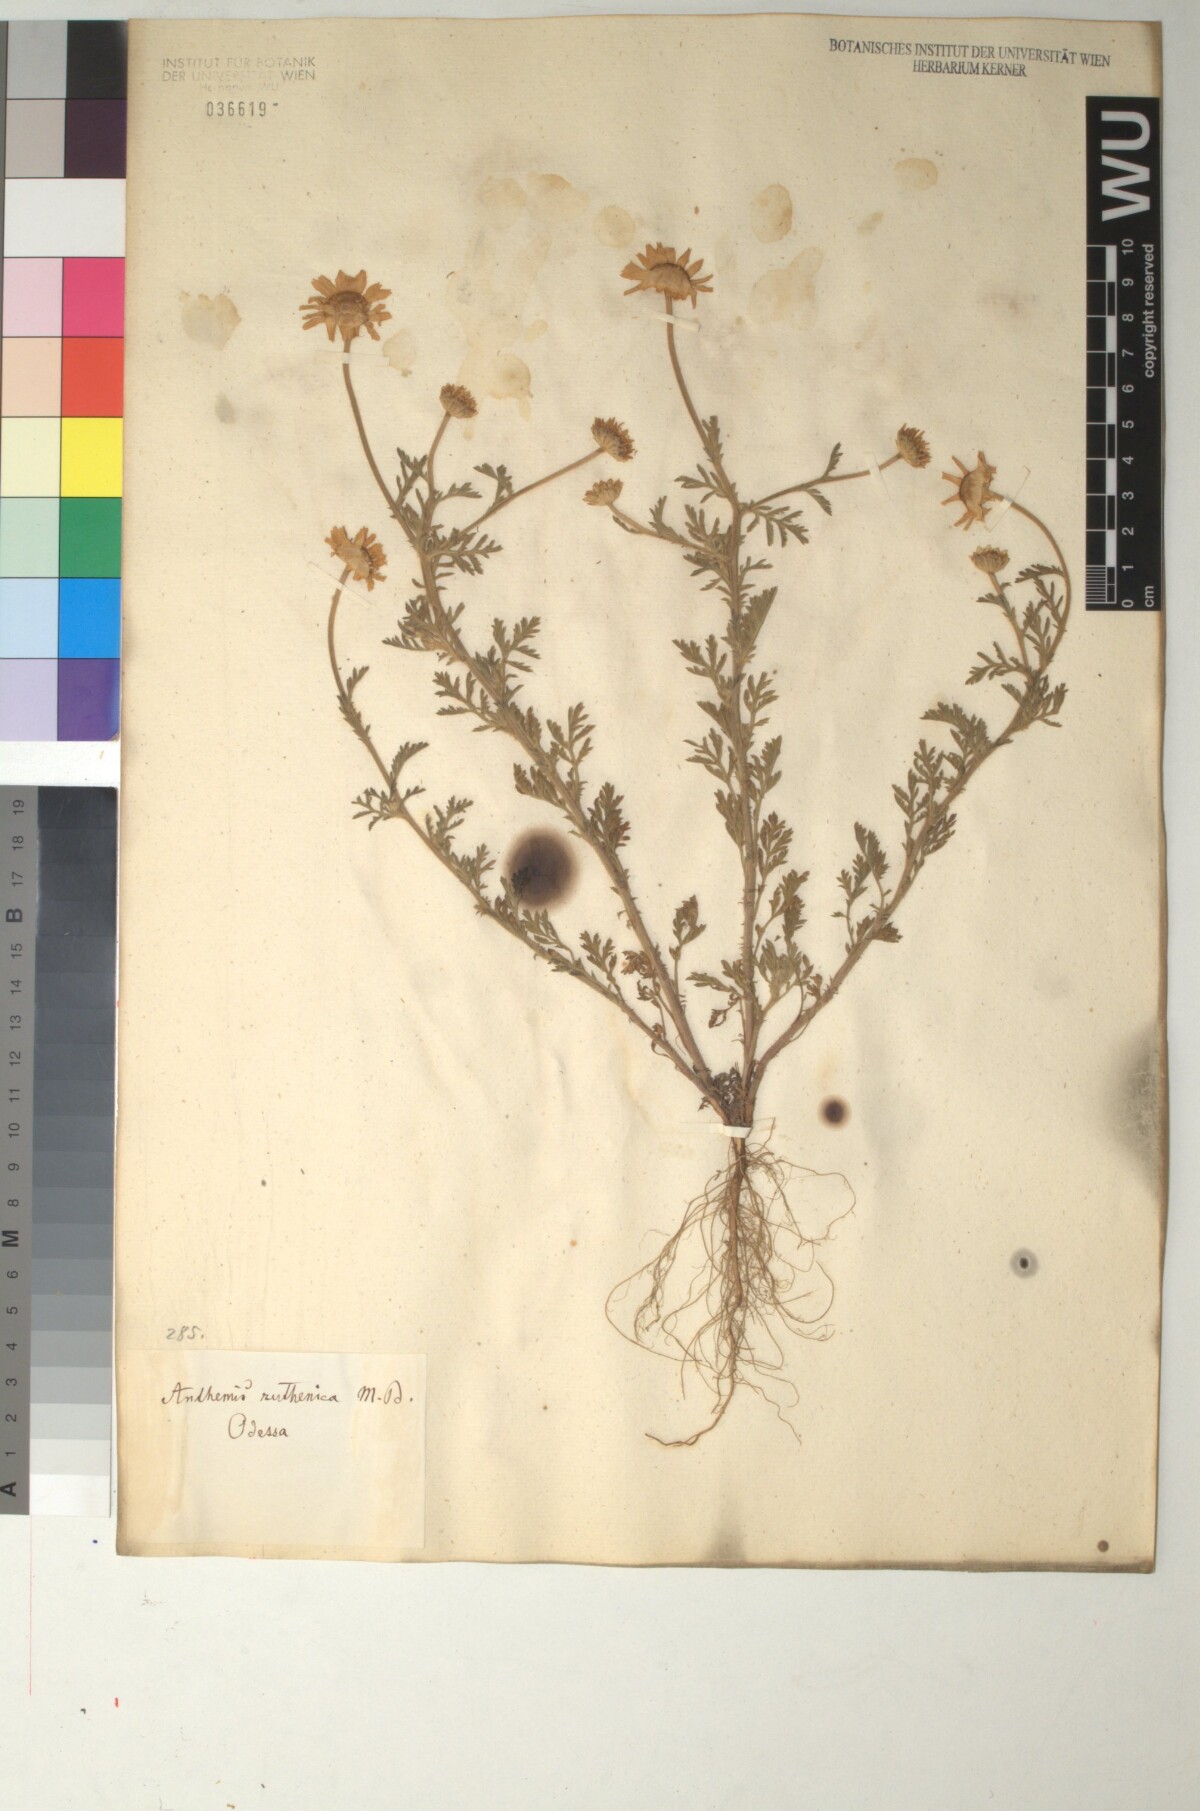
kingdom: Plantae
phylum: Tracheophyta
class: Magnoliopsida
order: Asterales
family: Asteraceae
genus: Anthemis
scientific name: Anthemis ruthenica
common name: Eastern chamomile
